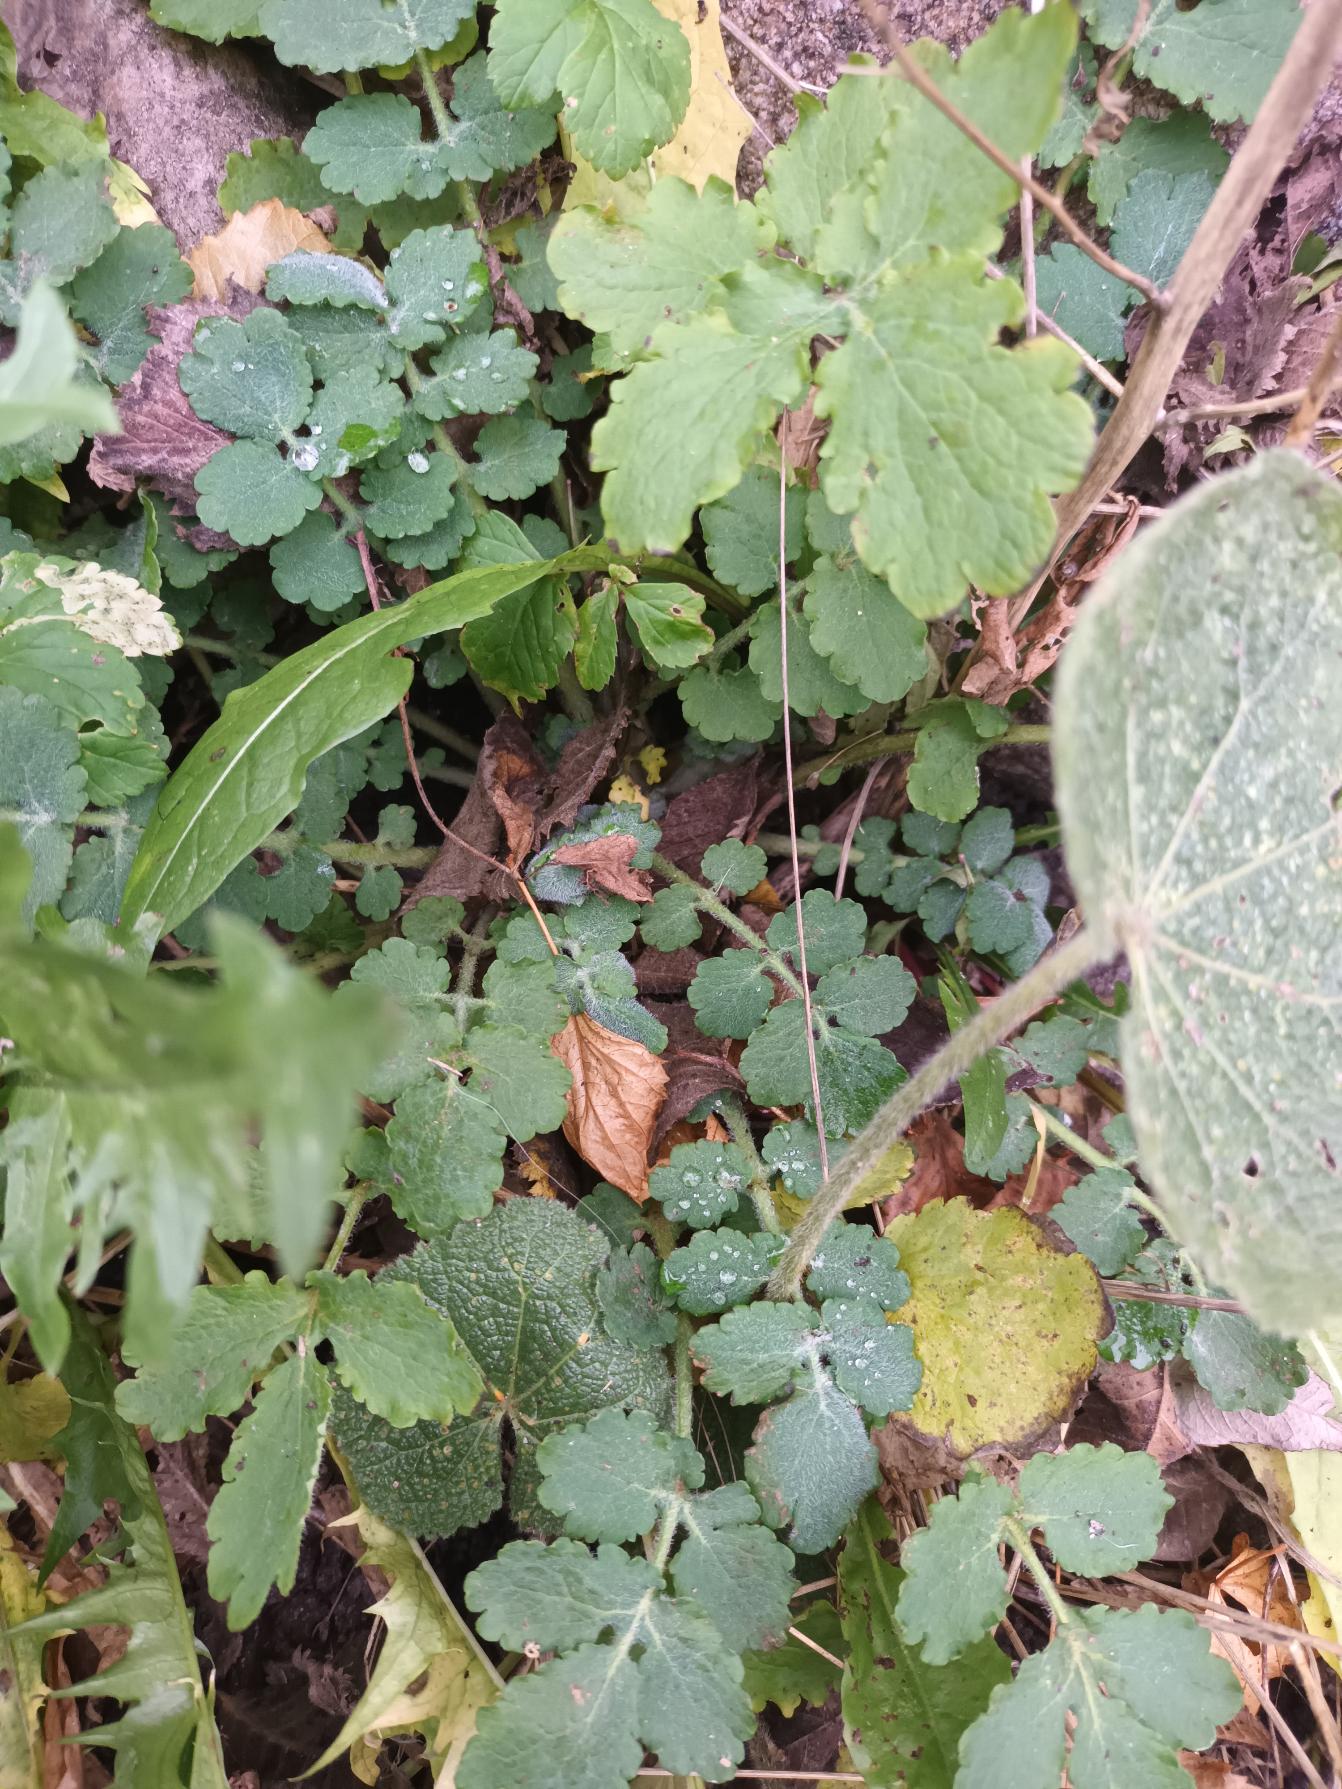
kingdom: Plantae
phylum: Tracheophyta
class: Magnoliopsida
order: Ranunculales
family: Papaveraceae
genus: Chelidonium
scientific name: Chelidonium majus
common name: Svaleurt
